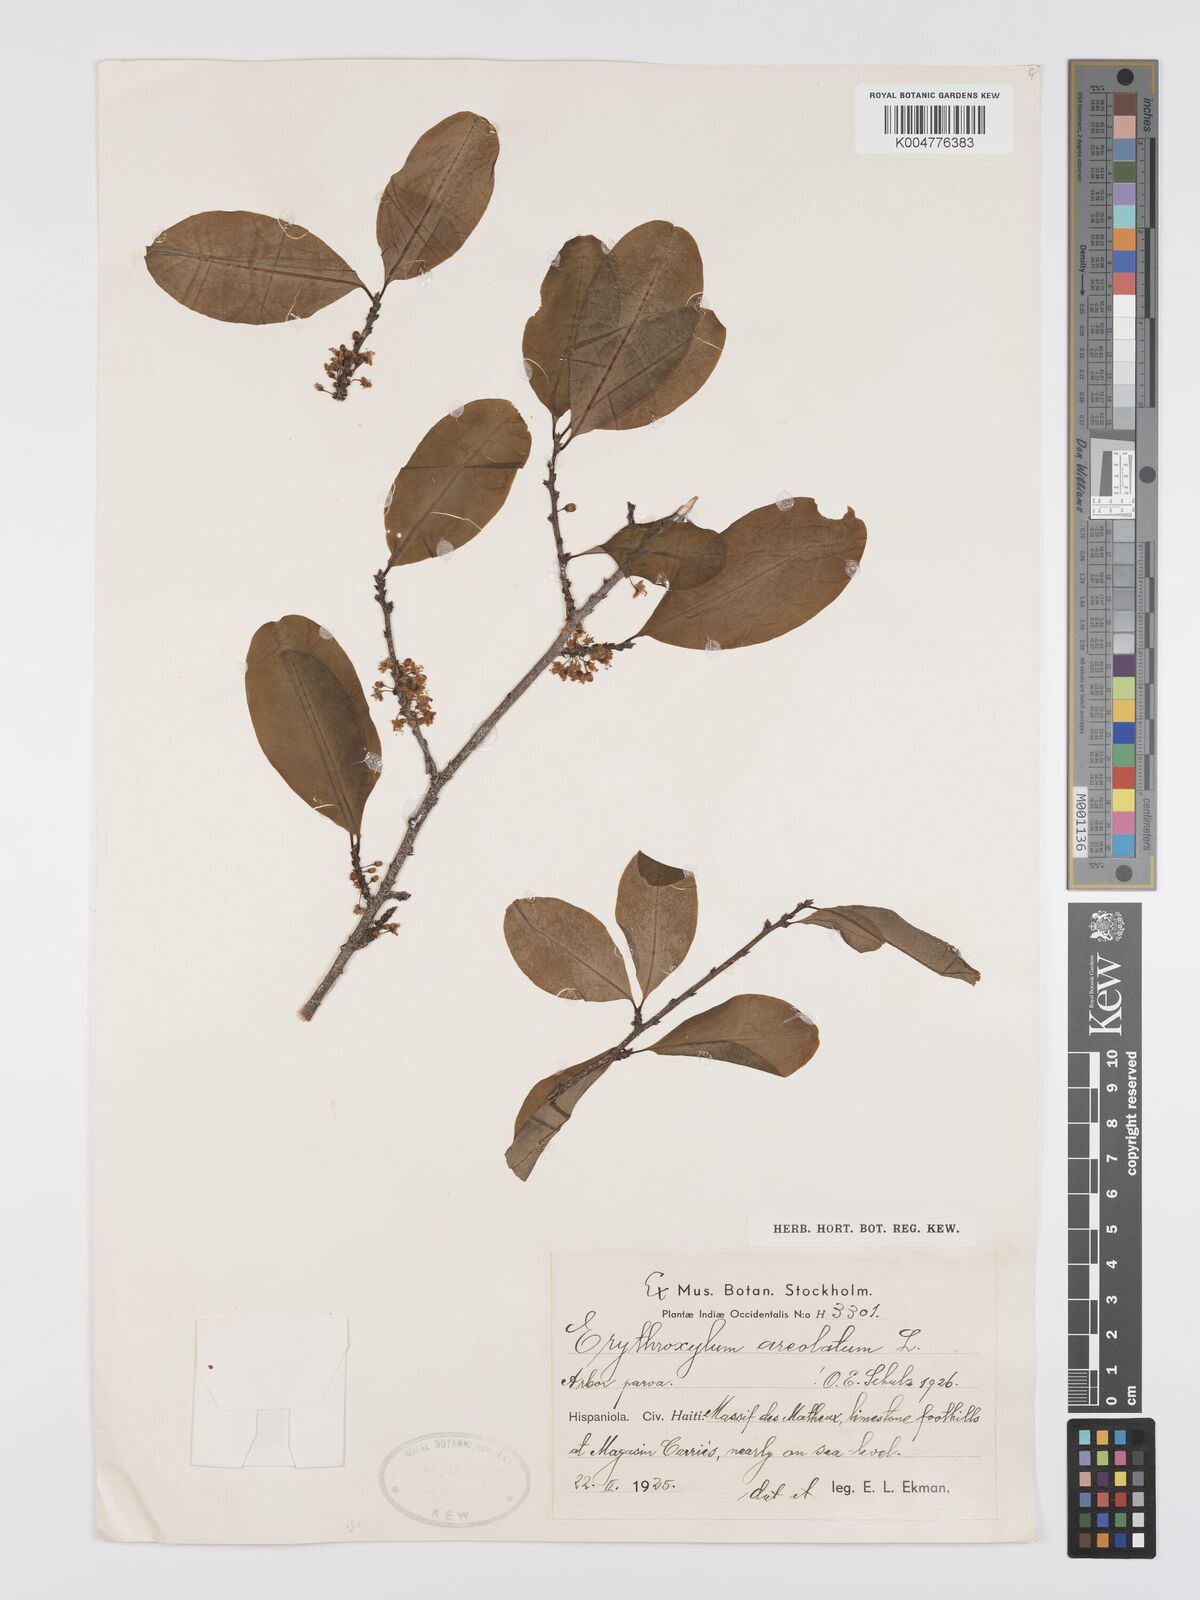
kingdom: Plantae
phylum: Tracheophyta
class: Magnoliopsida
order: Malpighiales
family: Erythroxylaceae
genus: Erythroxylum
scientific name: Erythroxylum areolatum
